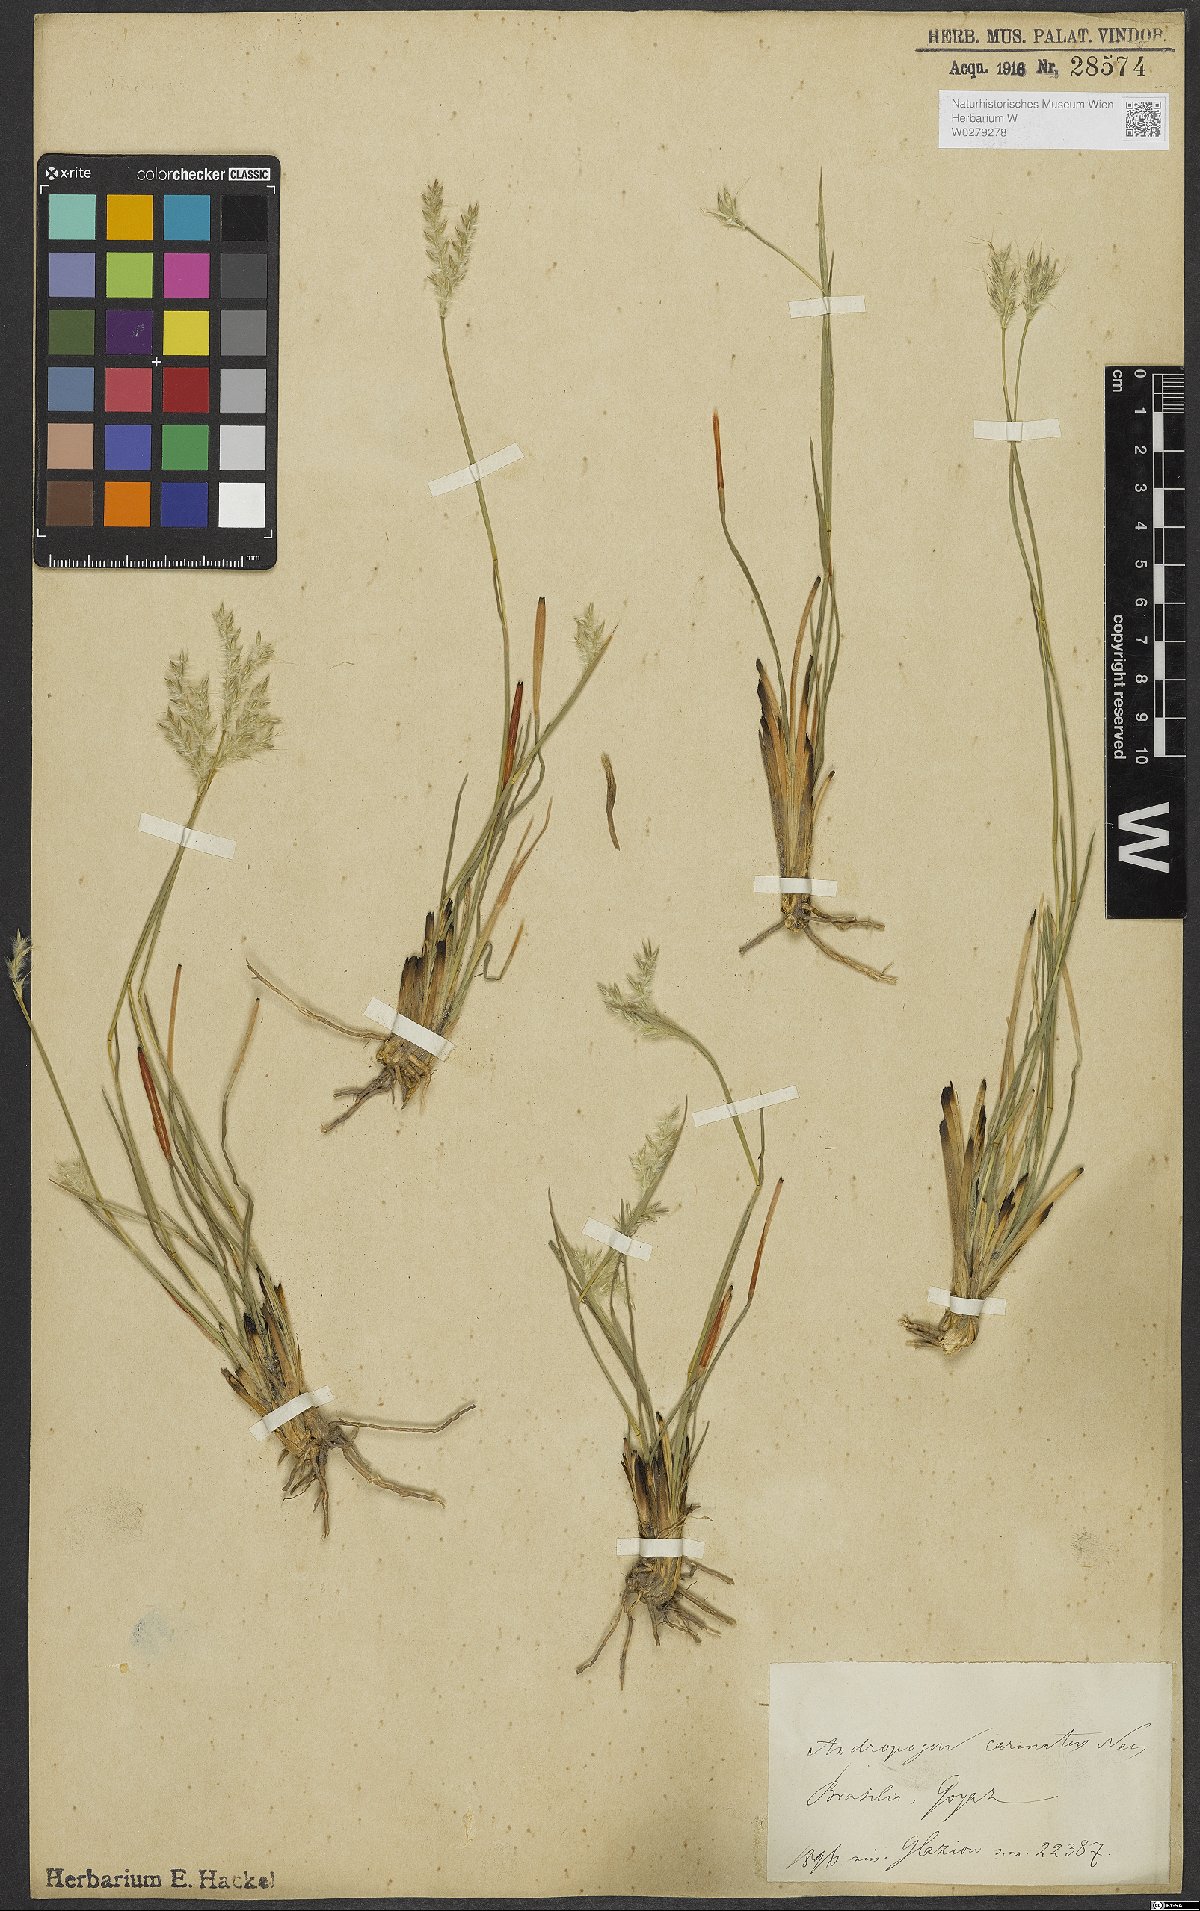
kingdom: Plantae
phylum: Tracheophyta
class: Liliopsida
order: Poales
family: Poaceae
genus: Andropogon
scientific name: Andropogon carinatus
